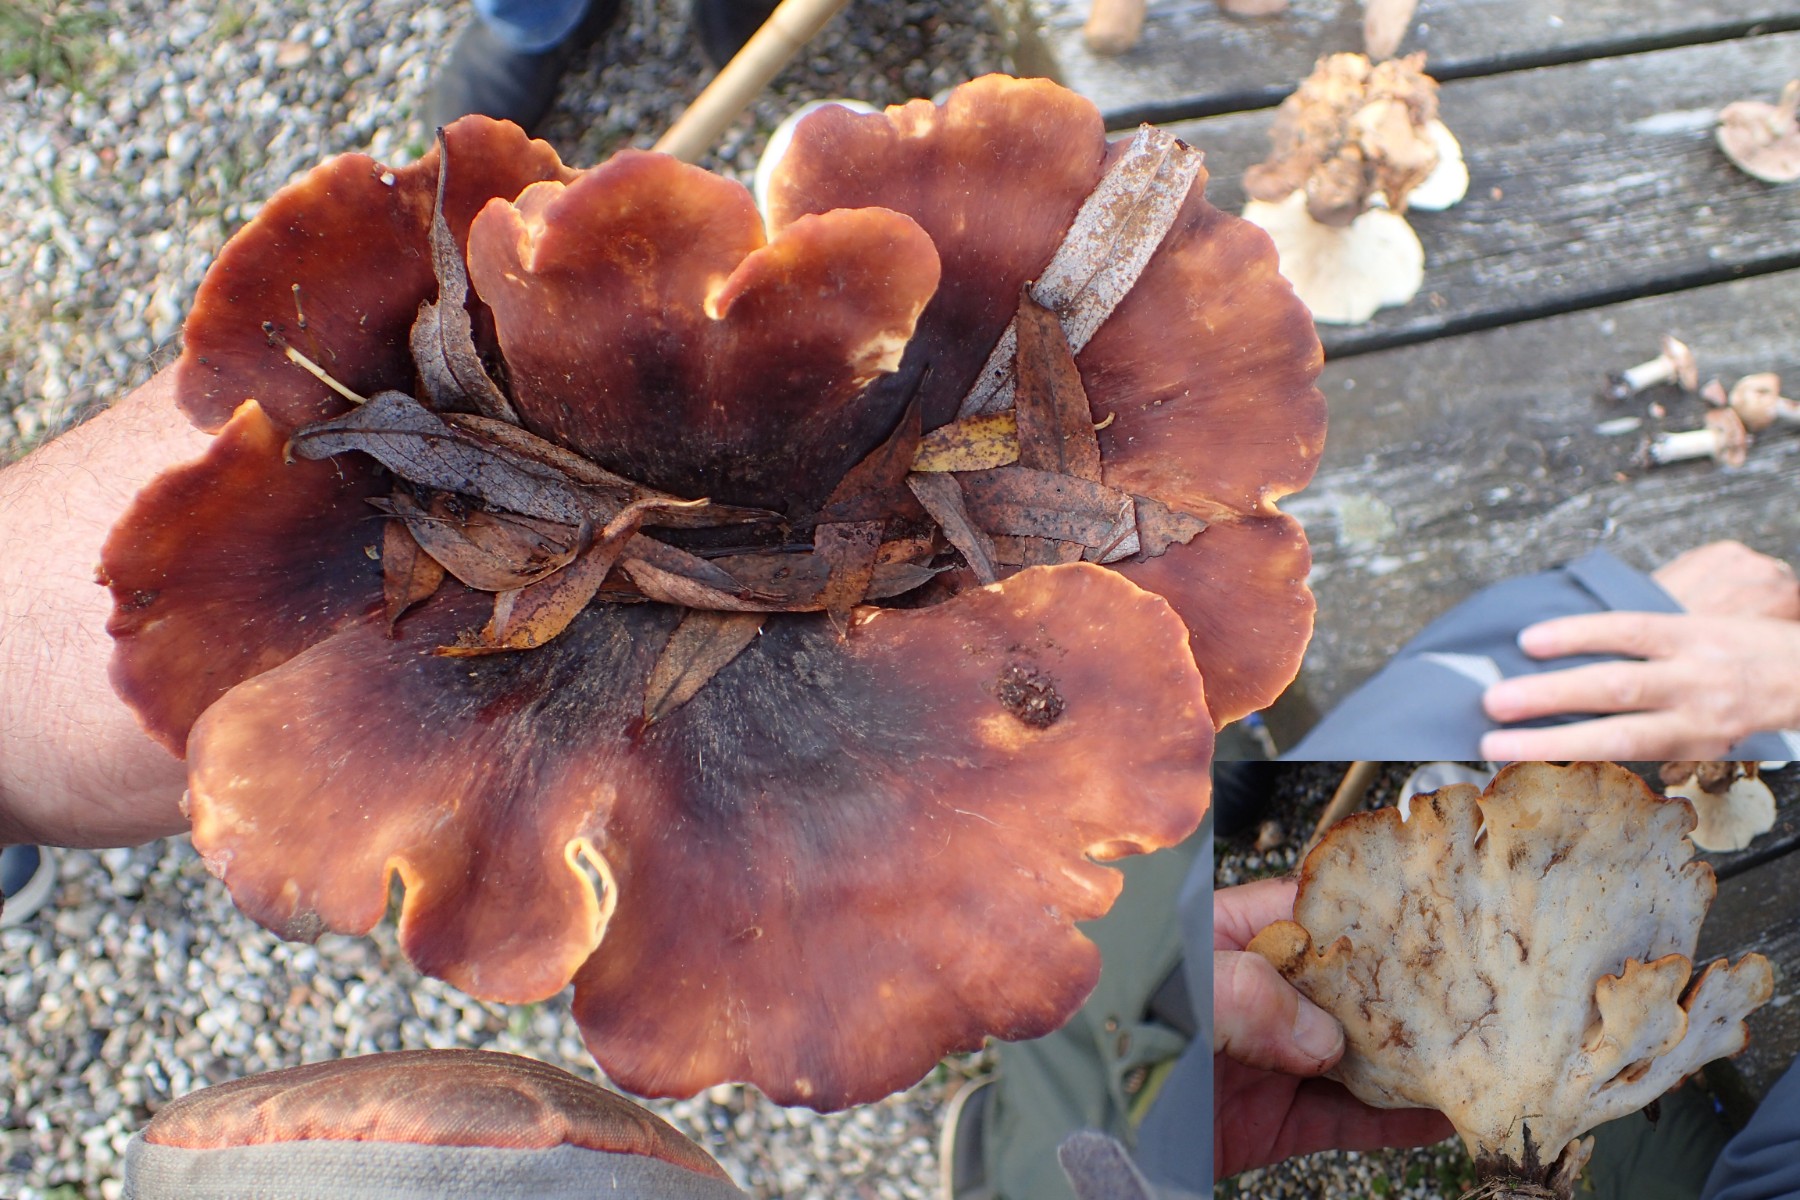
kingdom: Fungi
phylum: Basidiomycota
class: Agaricomycetes
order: Polyporales
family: Polyporaceae
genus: Picipes
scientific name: Picipes badius
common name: kastaniebrun stilkporesvamp
